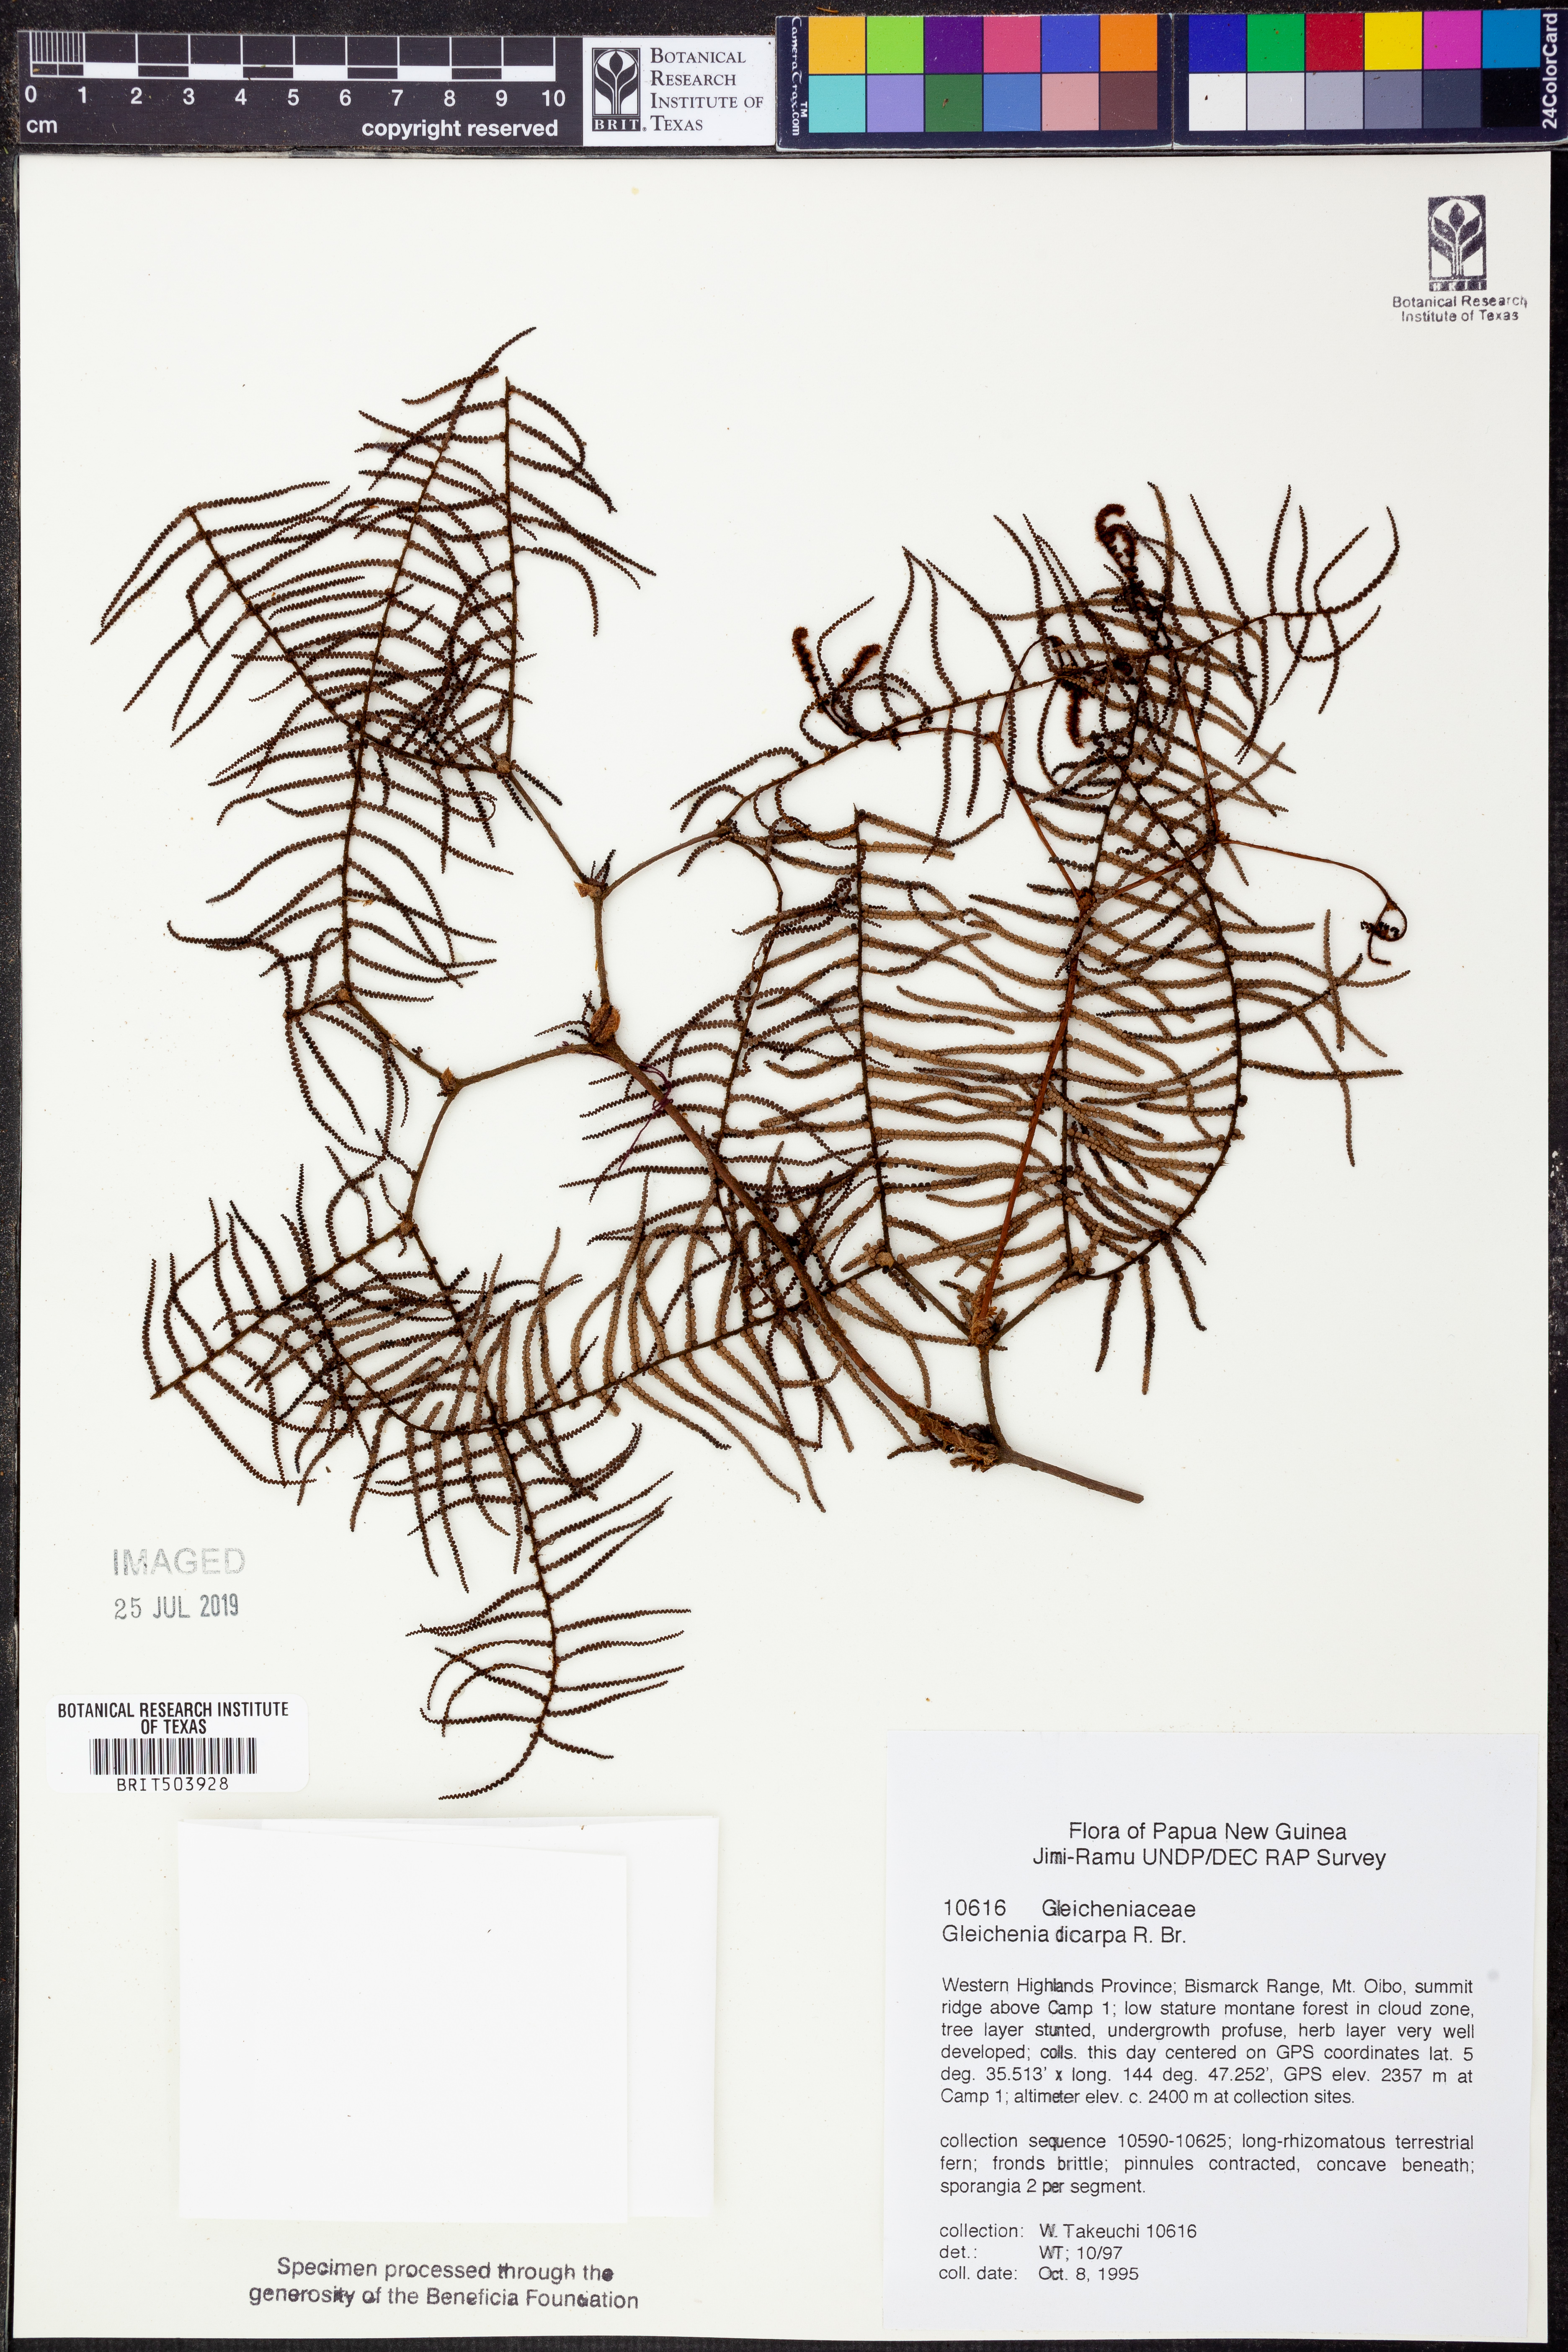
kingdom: Plantae
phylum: Tracheophyta
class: Polypodiopsida
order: Gleicheniales
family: Gleicheniaceae
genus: Gleichenia
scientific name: Gleichenia dicarpa
